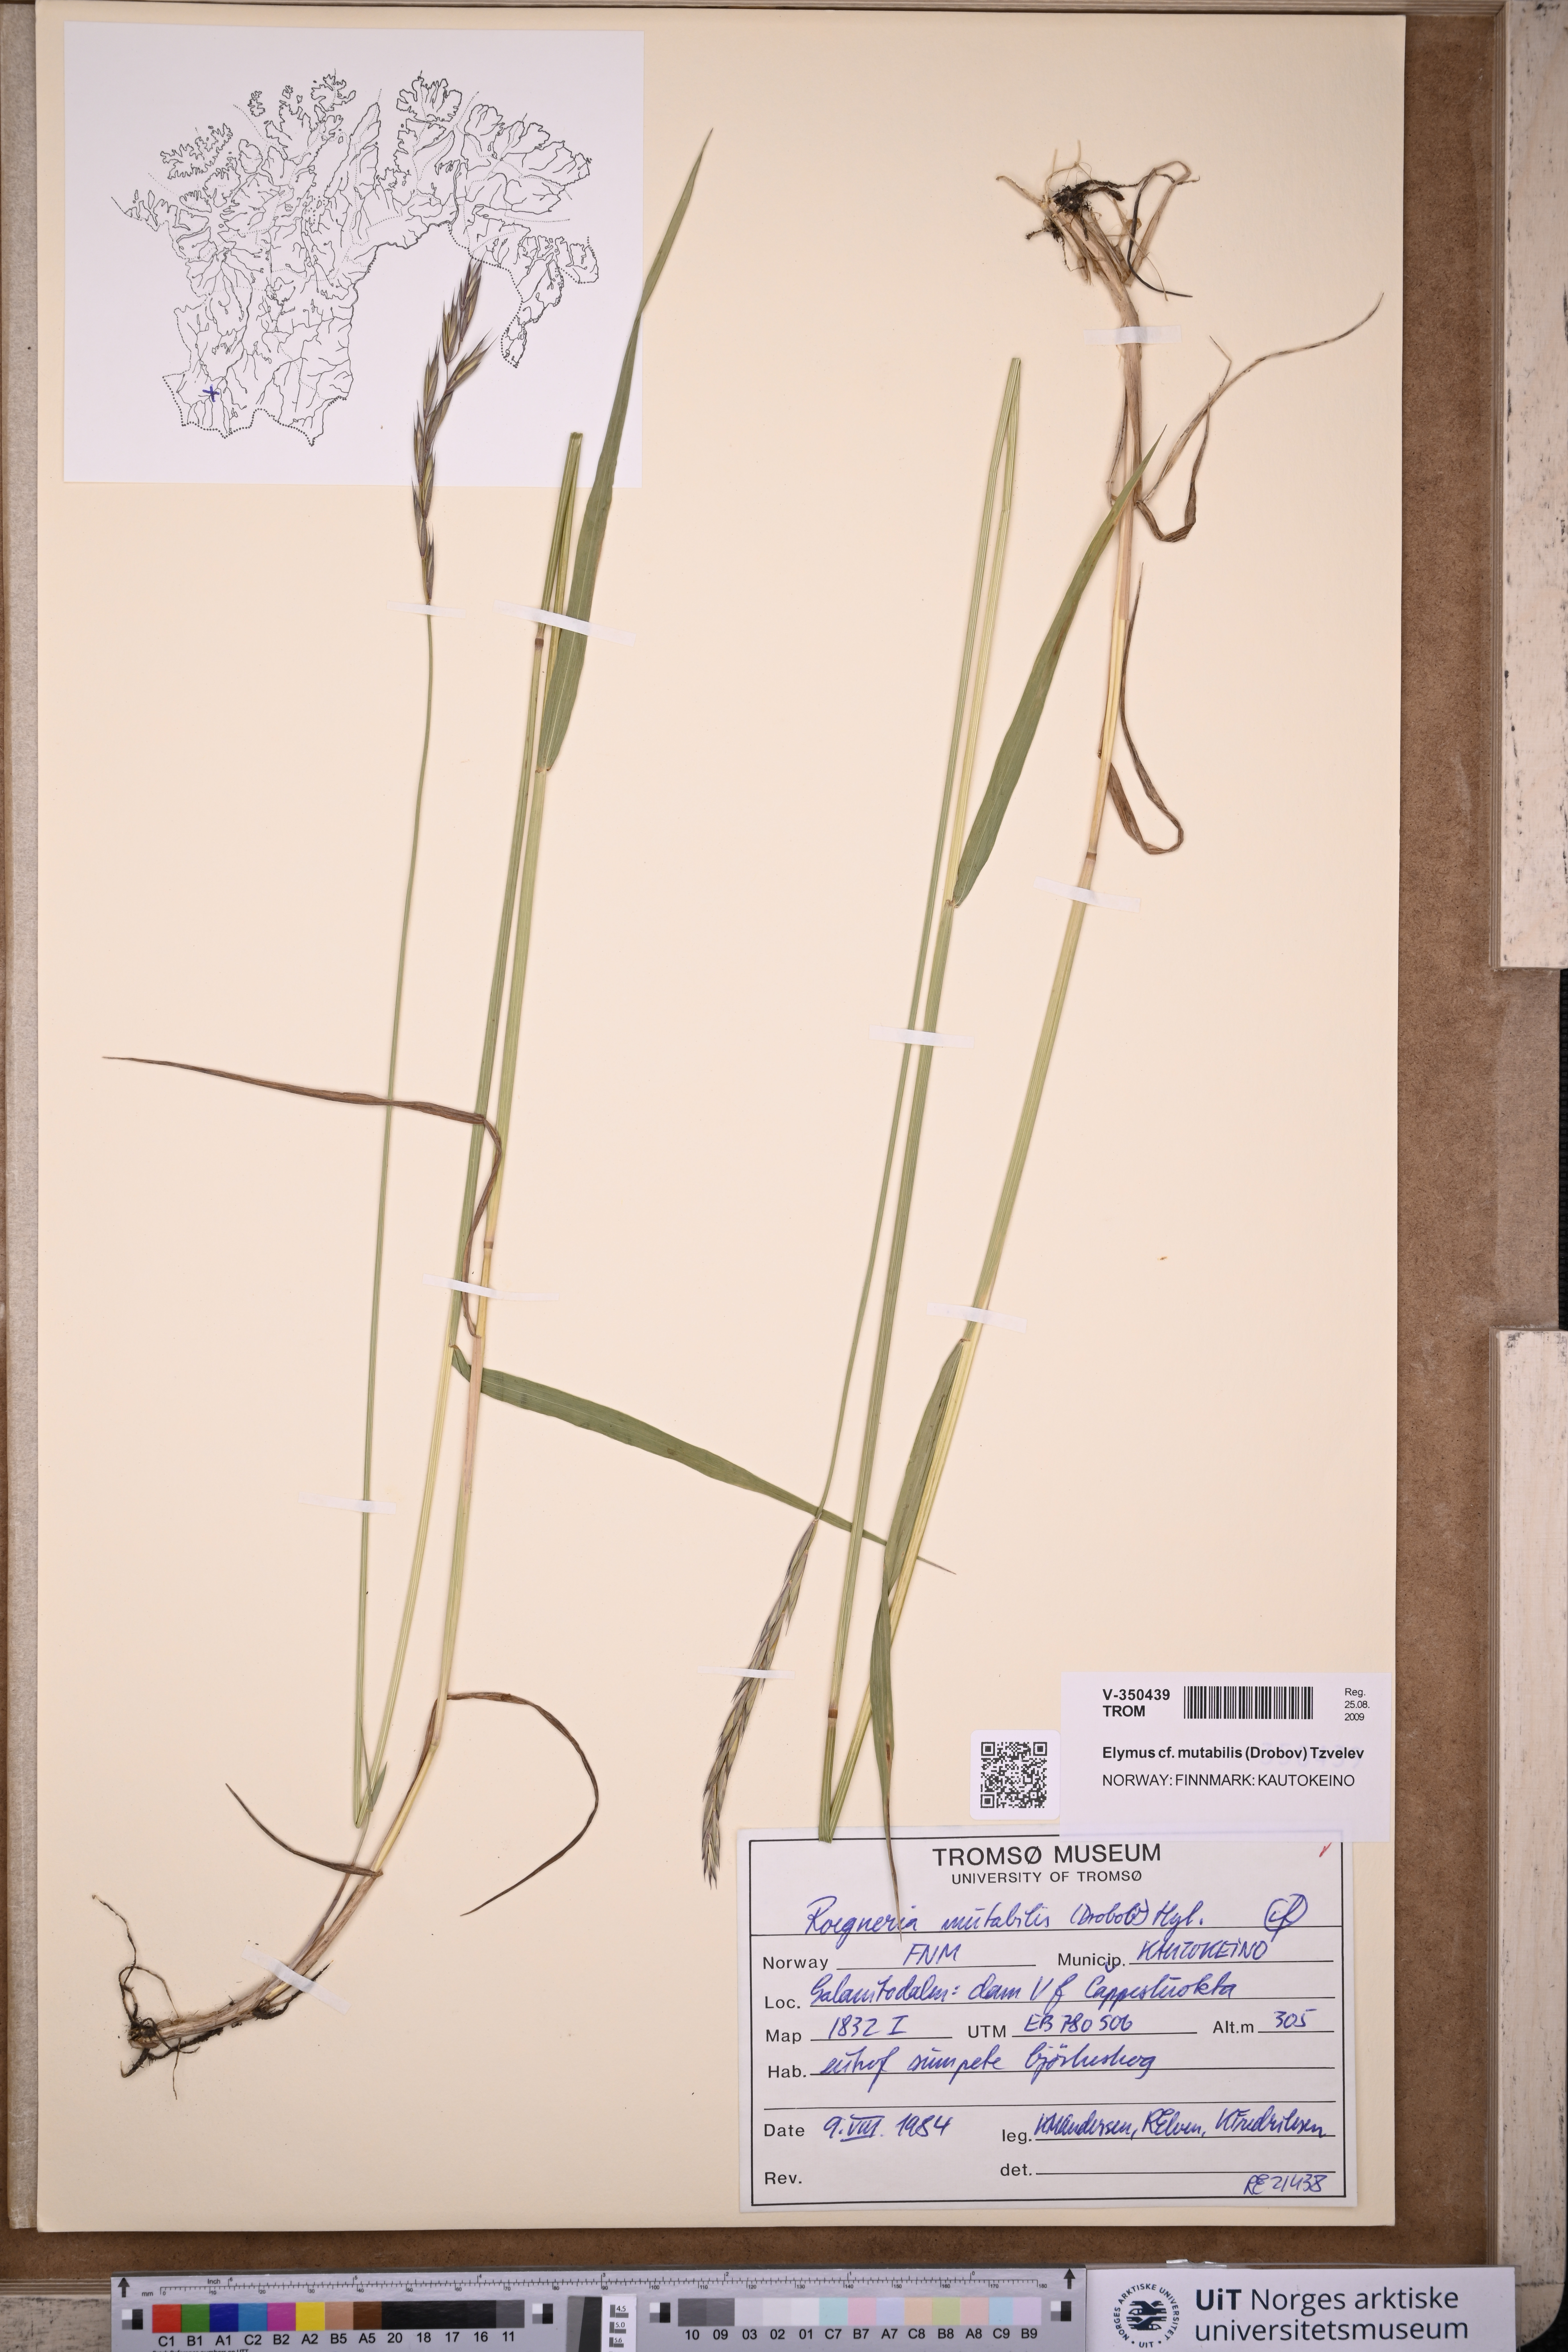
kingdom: Plantae
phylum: Tracheophyta
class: Liliopsida
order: Poales
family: Poaceae
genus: Elymus
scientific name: Elymus mutabilis
